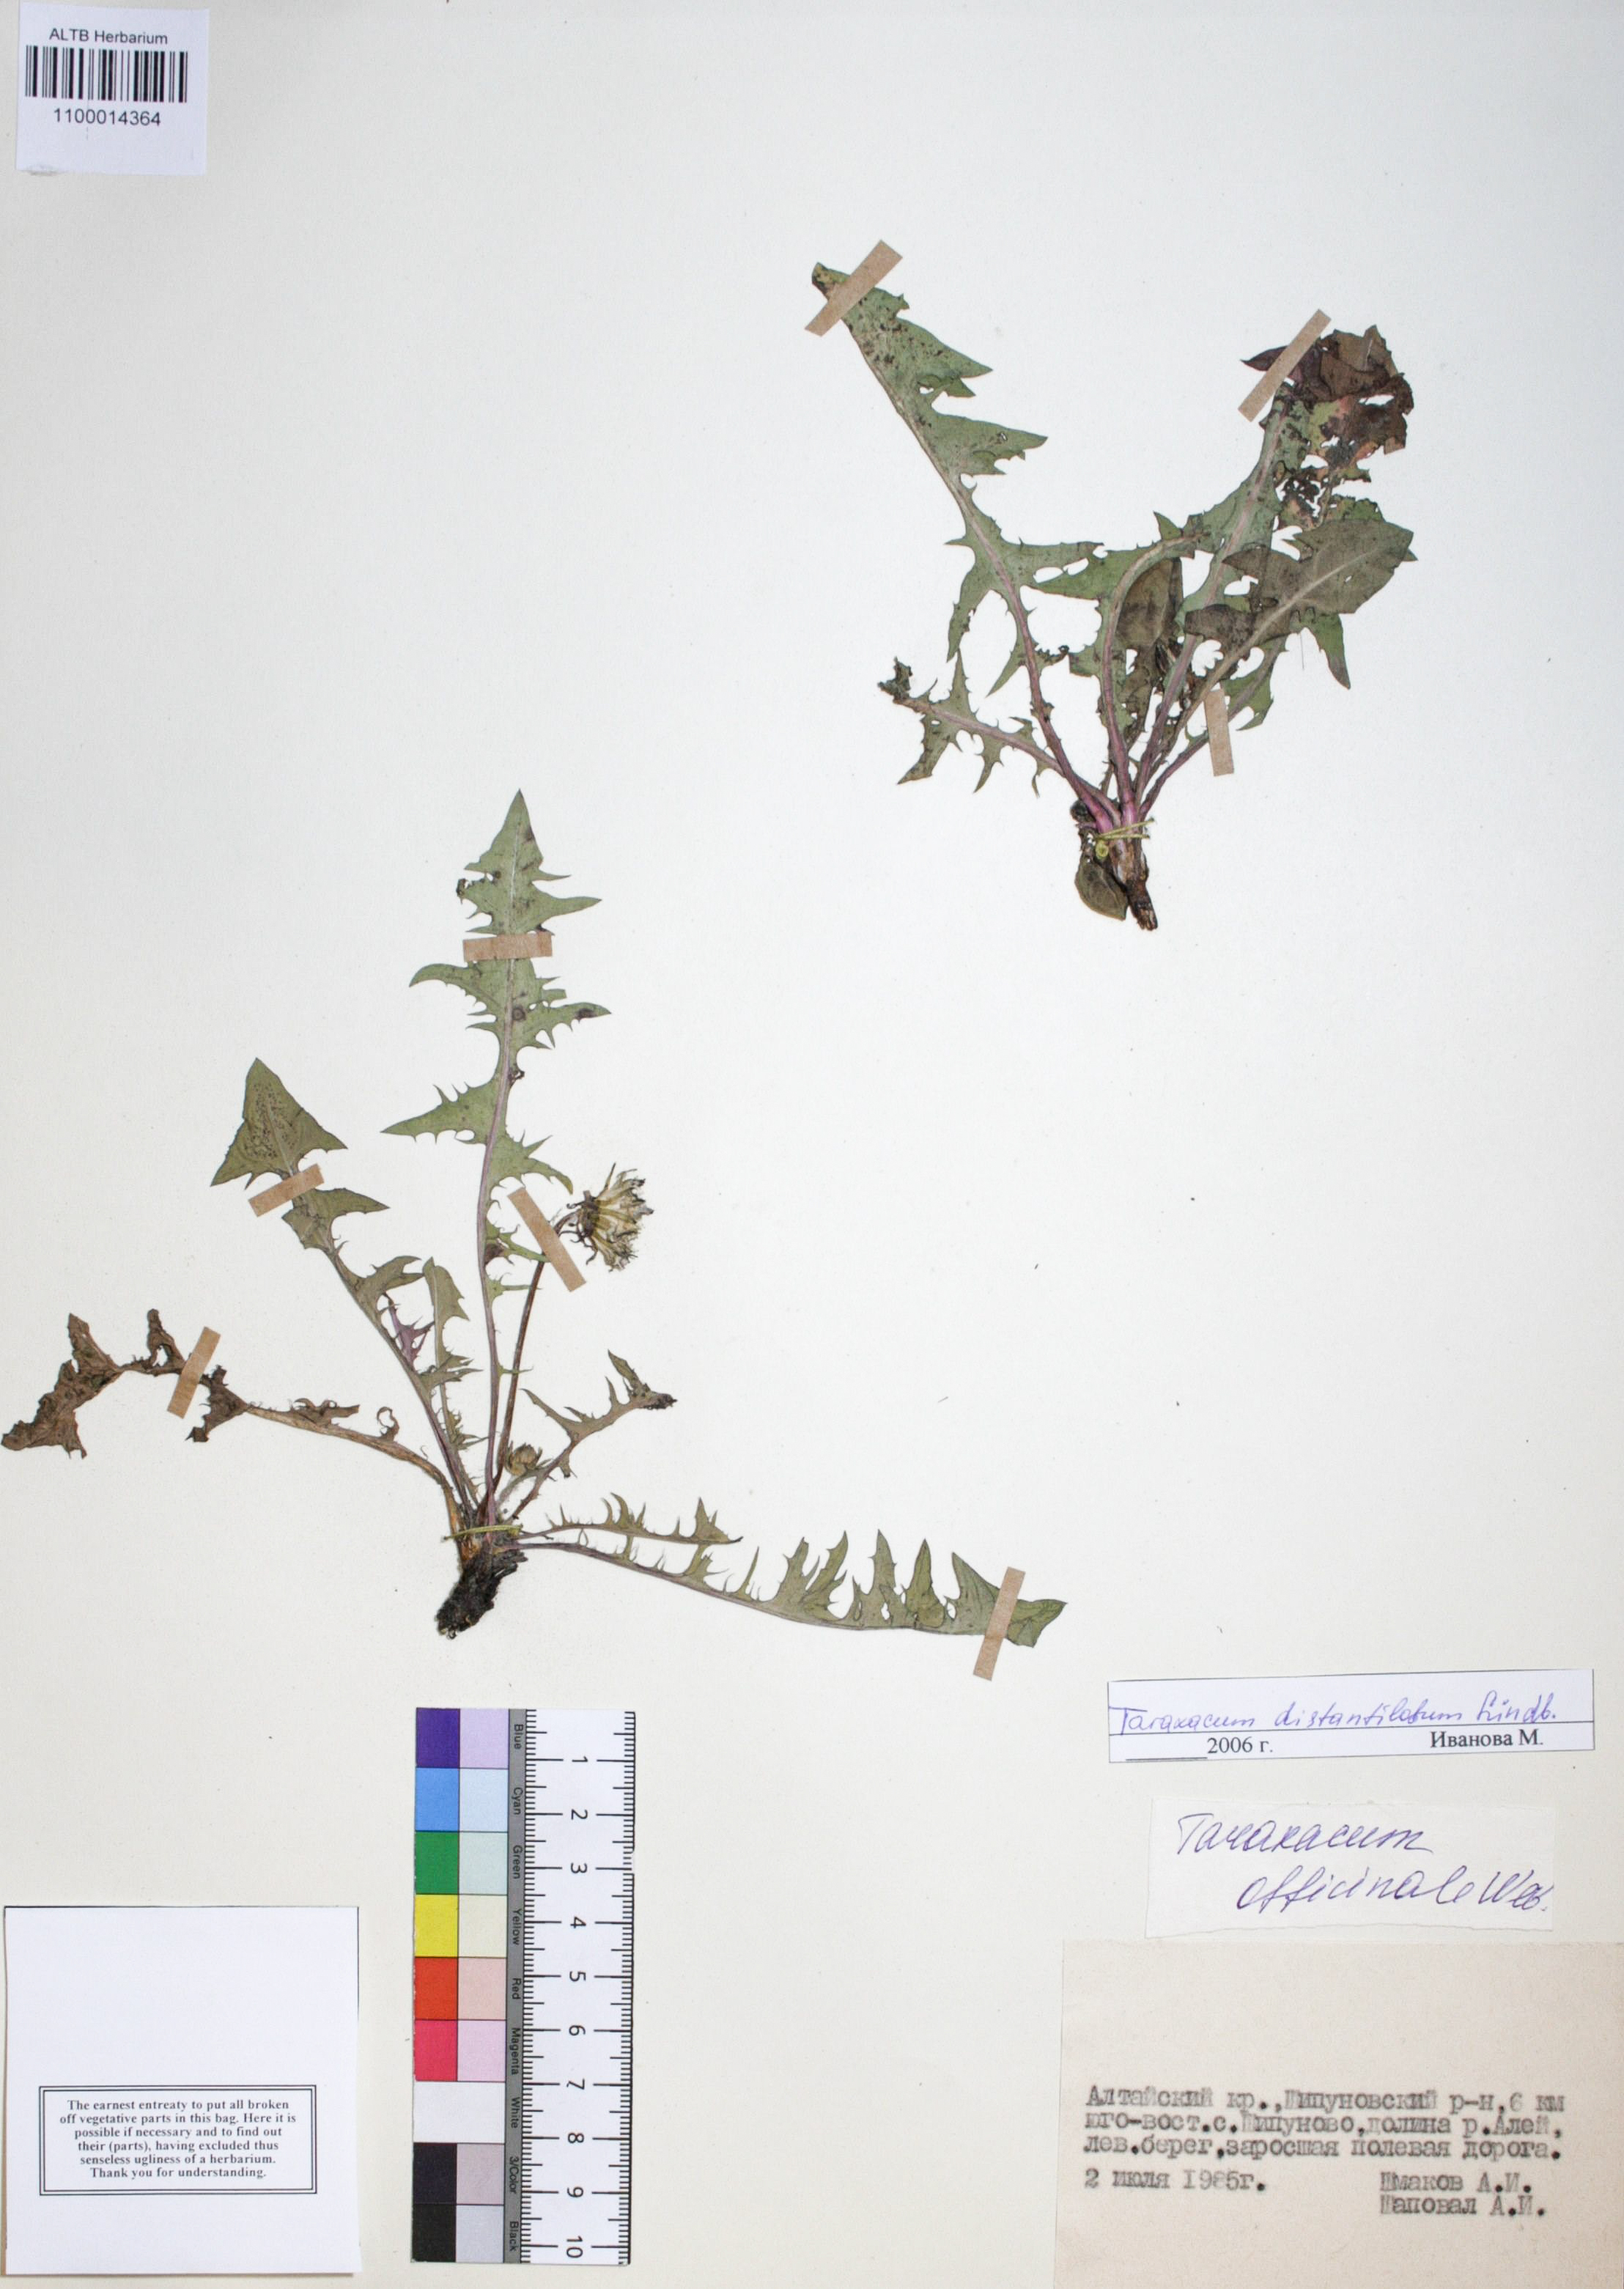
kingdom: Plantae
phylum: Tracheophyta
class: Magnoliopsida
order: Asterales
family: Asteraceae
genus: Taraxacum
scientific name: Taraxacum distantilobum
